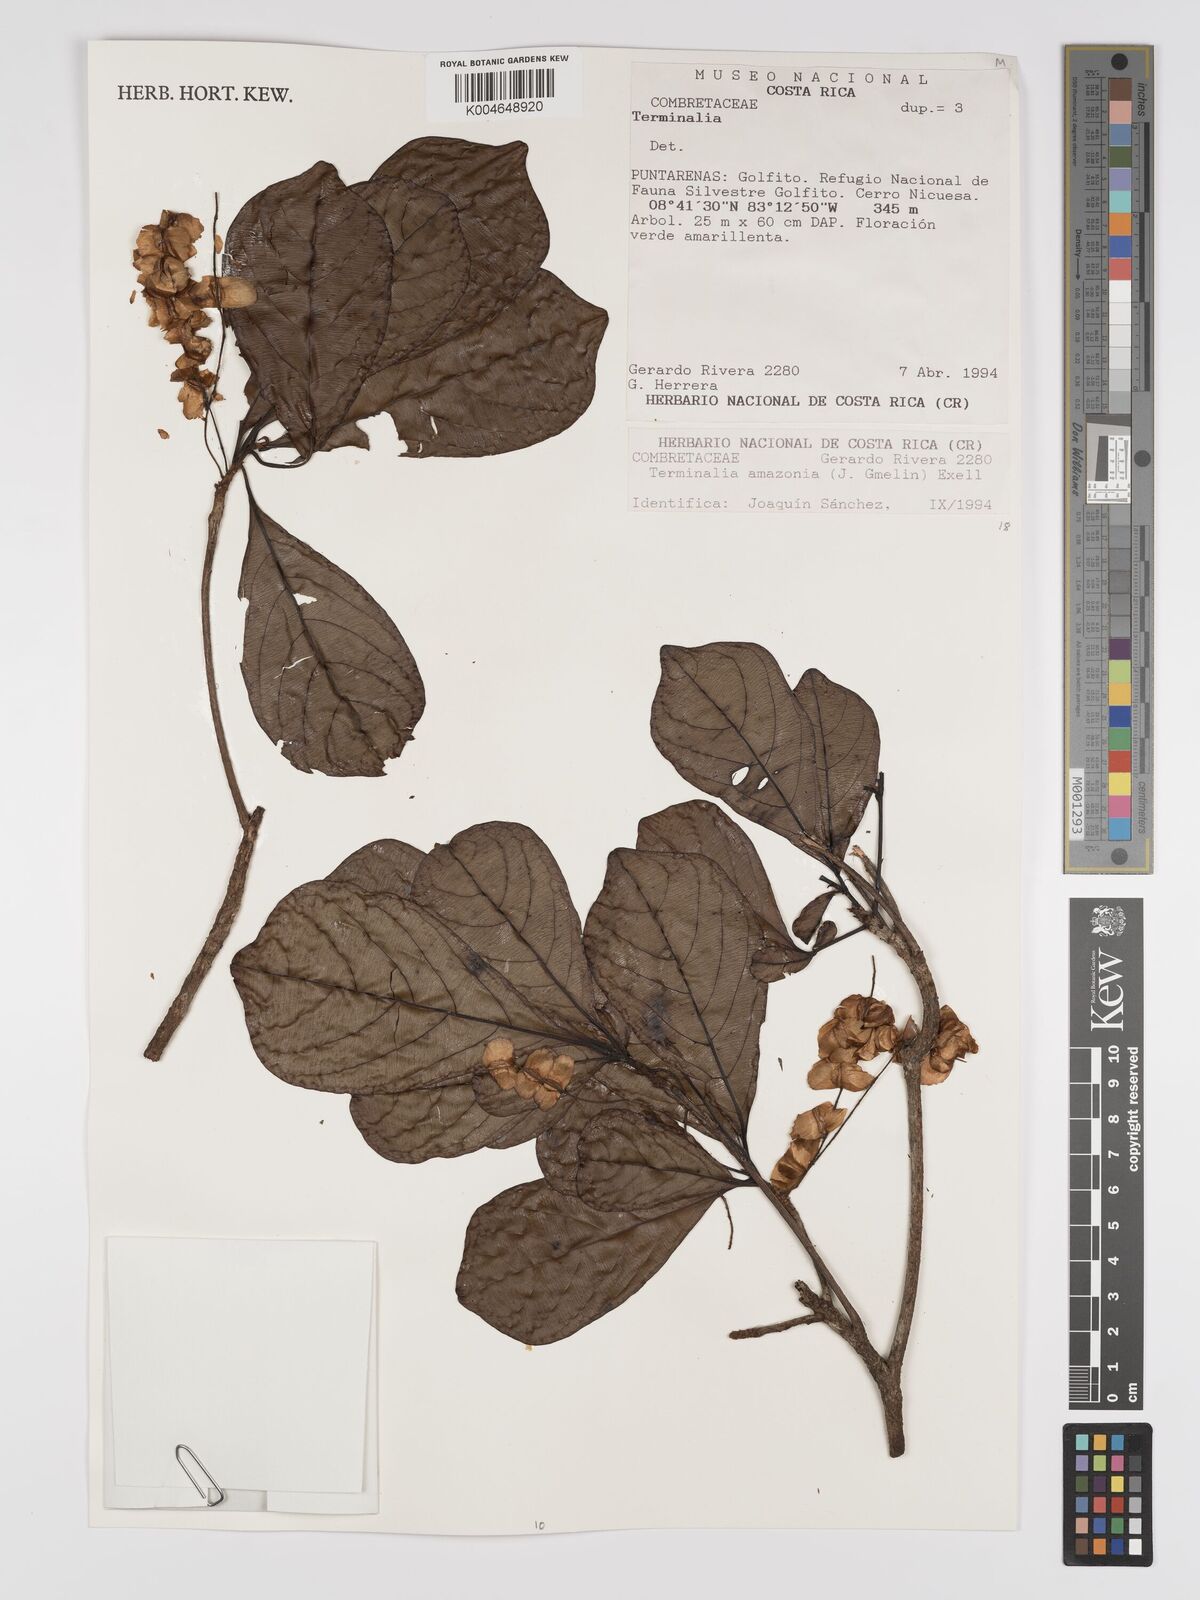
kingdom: Plantae
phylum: Tracheophyta
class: Magnoliopsida
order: Myrtales
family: Combretaceae
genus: Terminalia
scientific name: Terminalia amazonica
